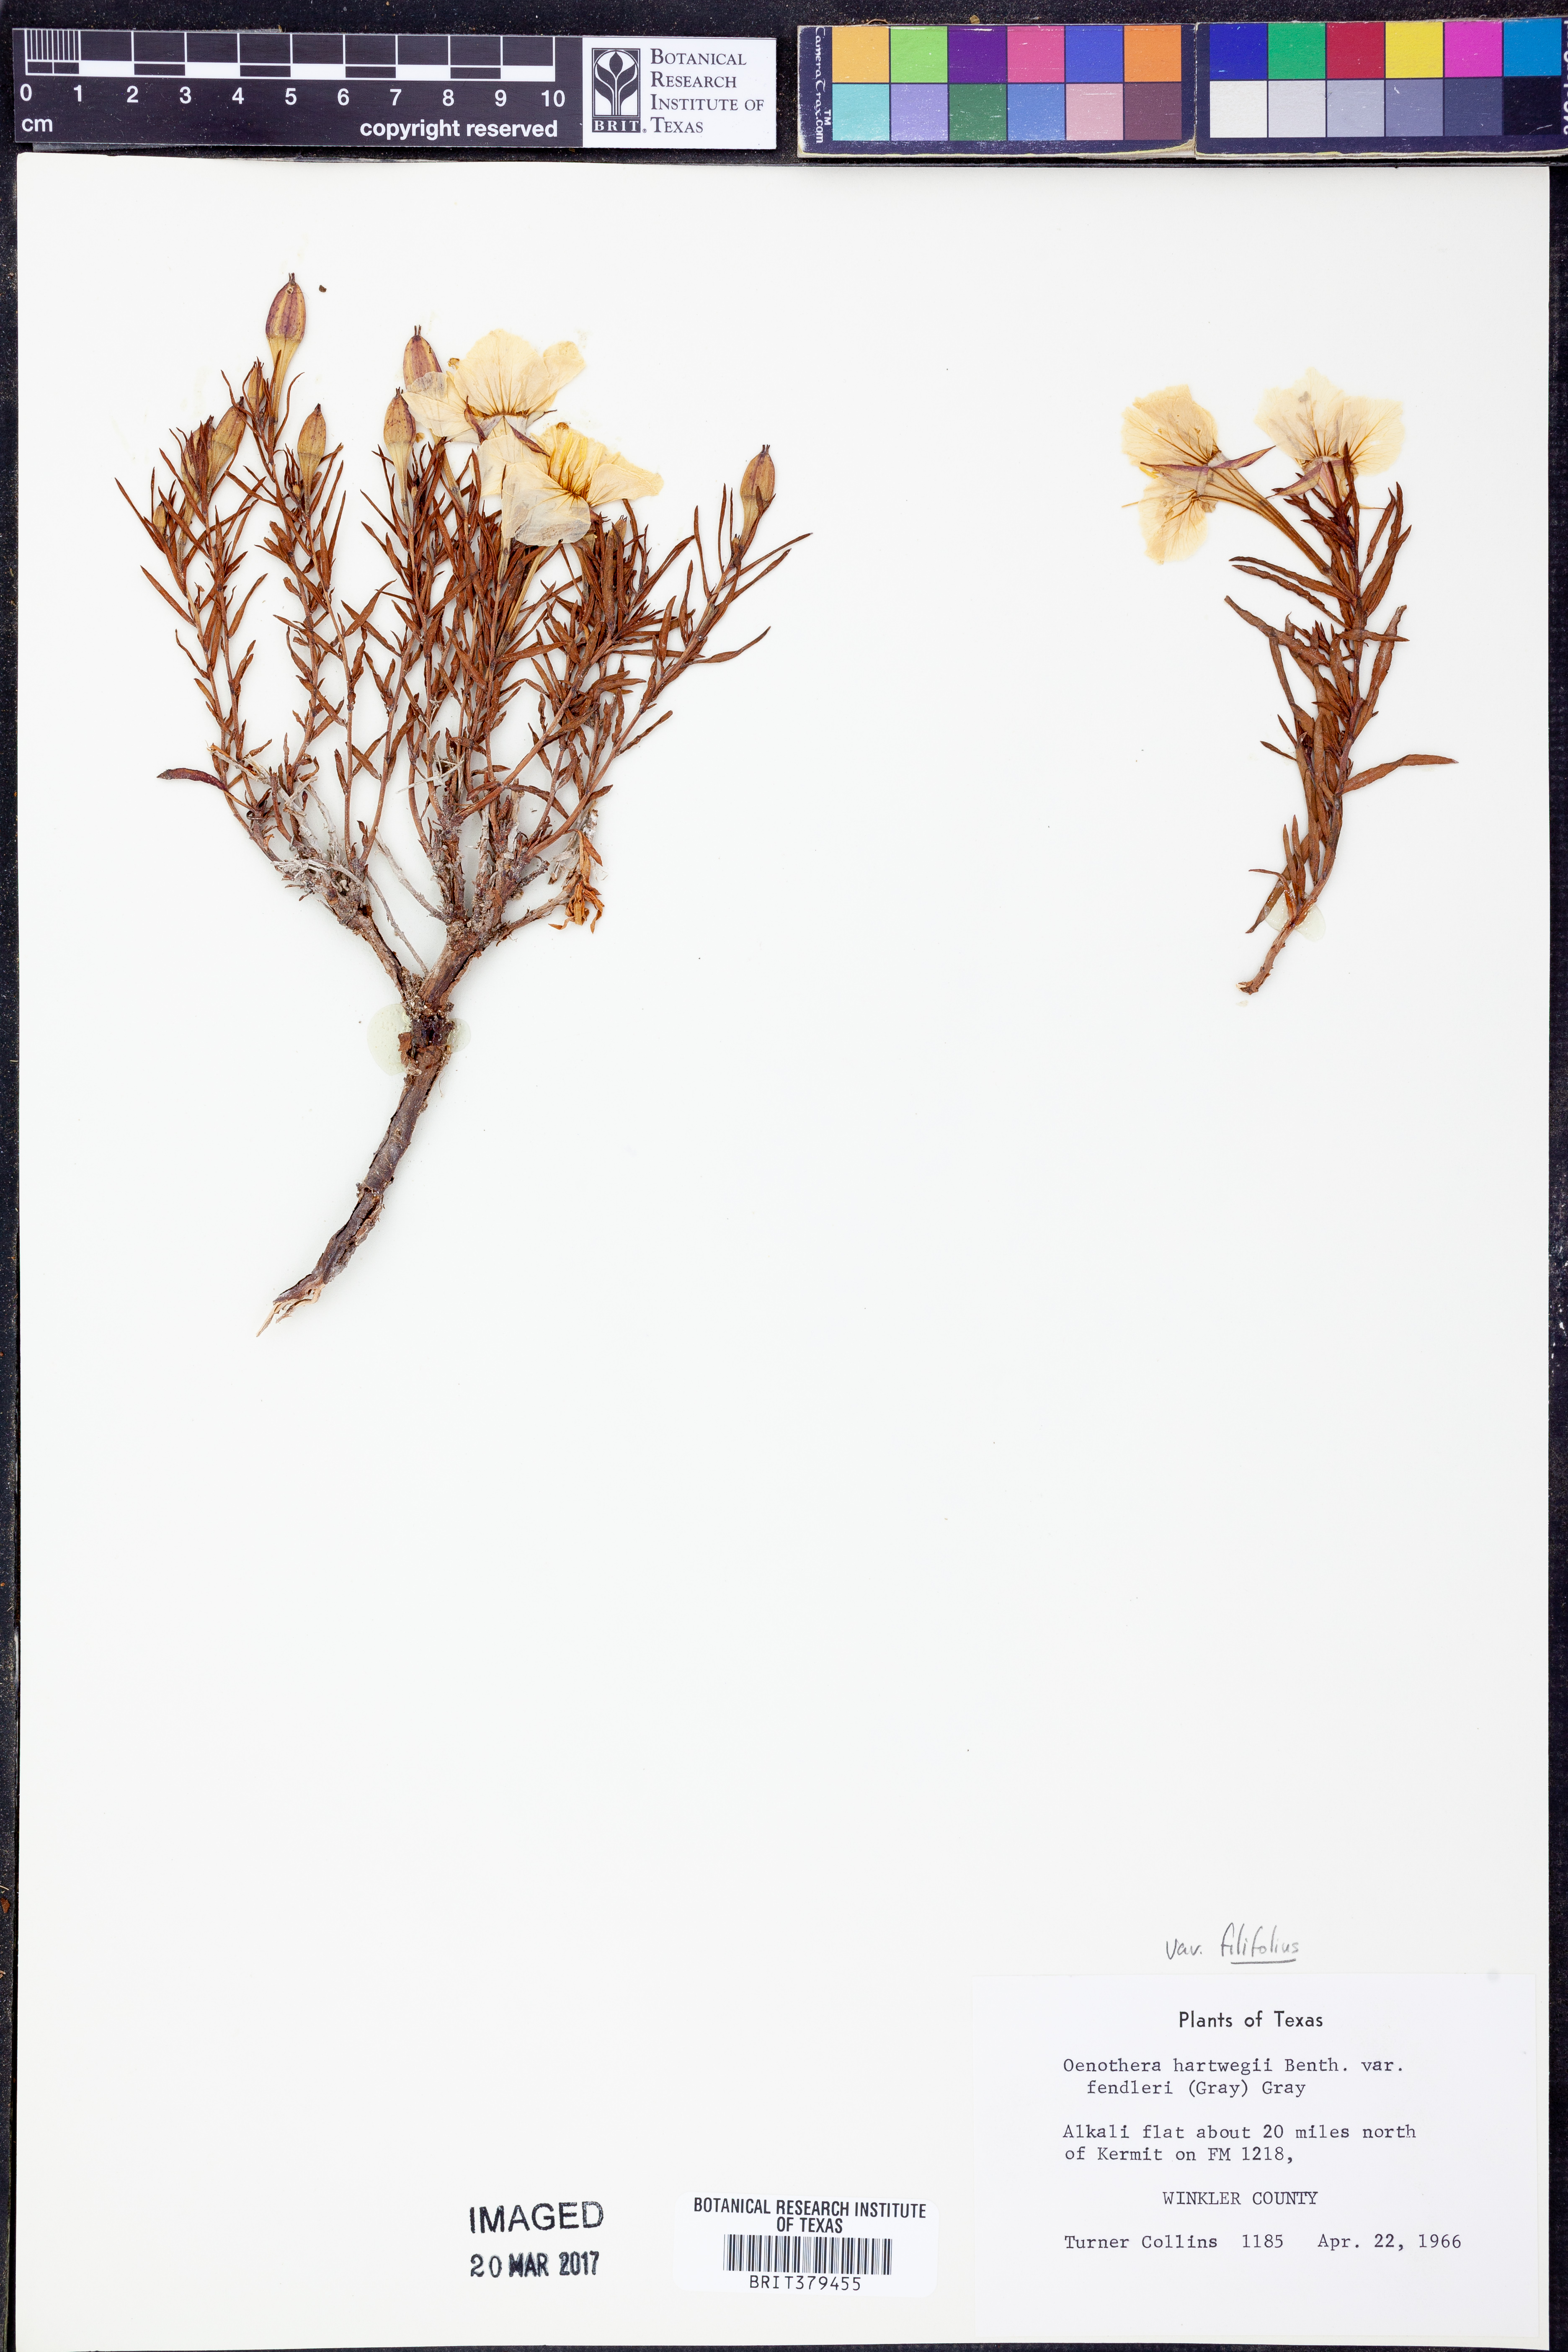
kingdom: Plantae
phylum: Tracheophyta
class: Magnoliopsida
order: Myrtales
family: Onagraceae
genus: Oenothera
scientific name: Oenothera hartwegii
